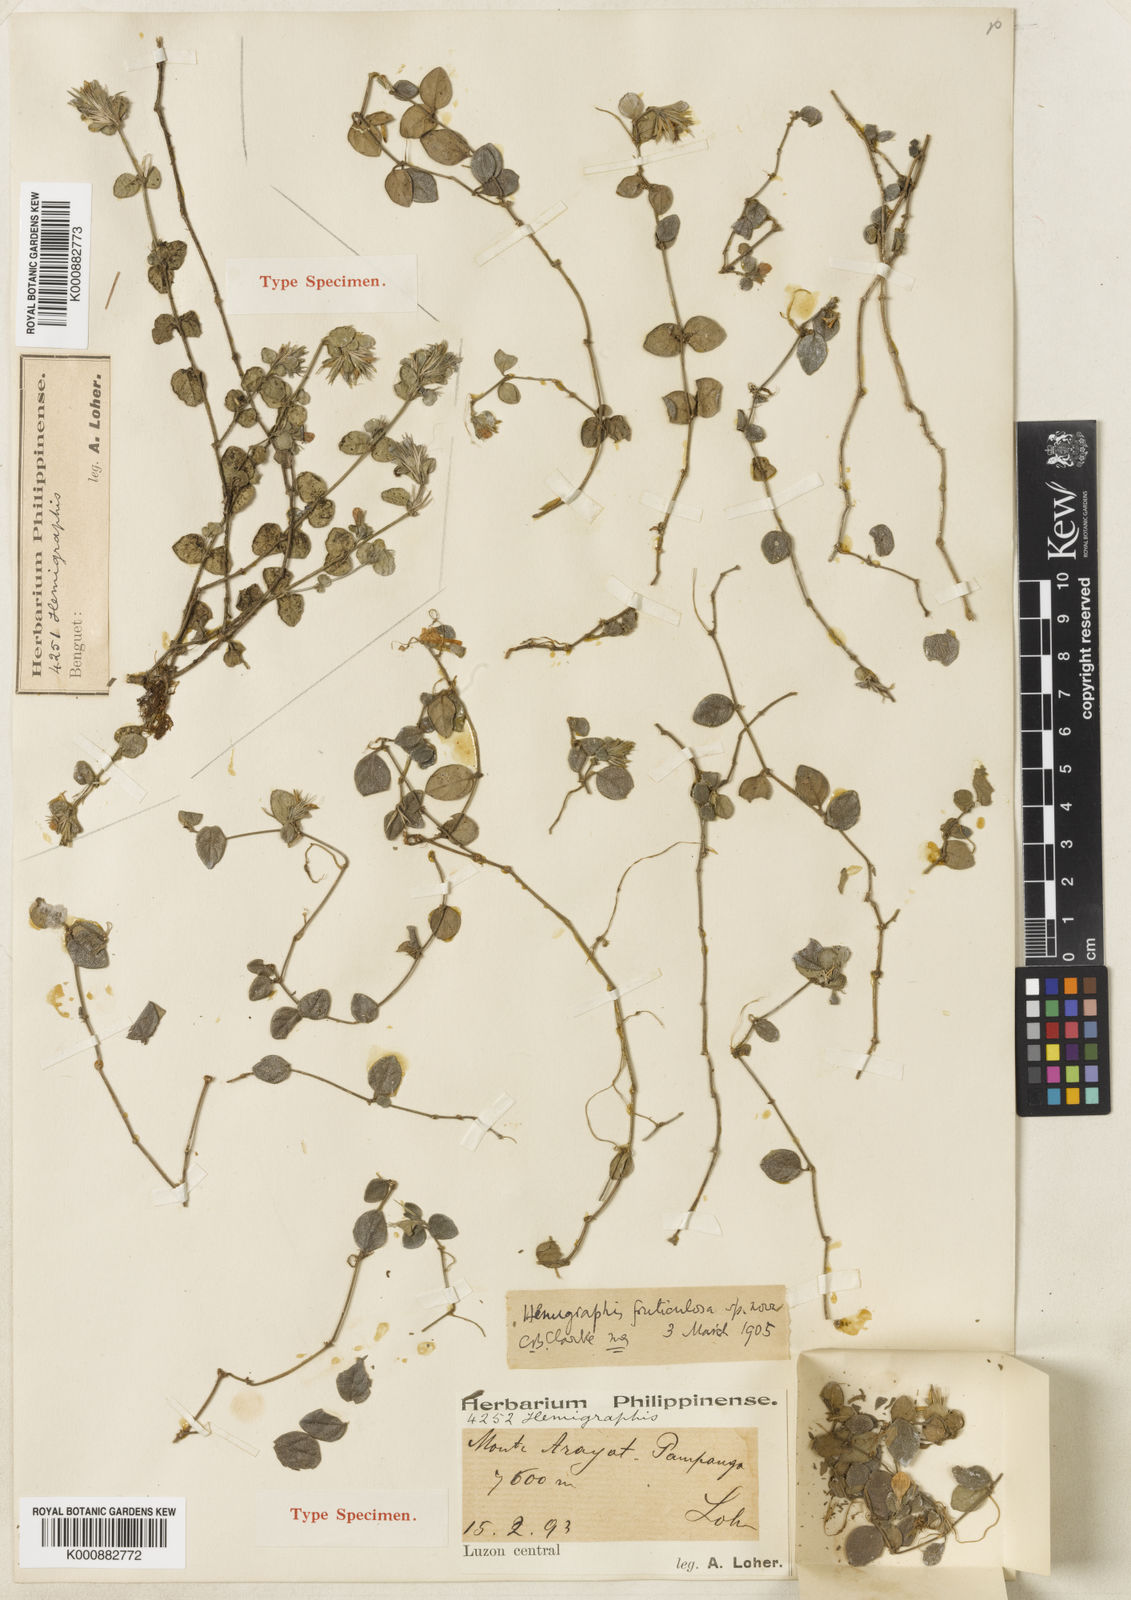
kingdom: Plantae
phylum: Tracheophyta
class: Magnoliopsida
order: Lamiales
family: Acanthaceae
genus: Strobilanthes
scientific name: Strobilanthes fruticulosa
